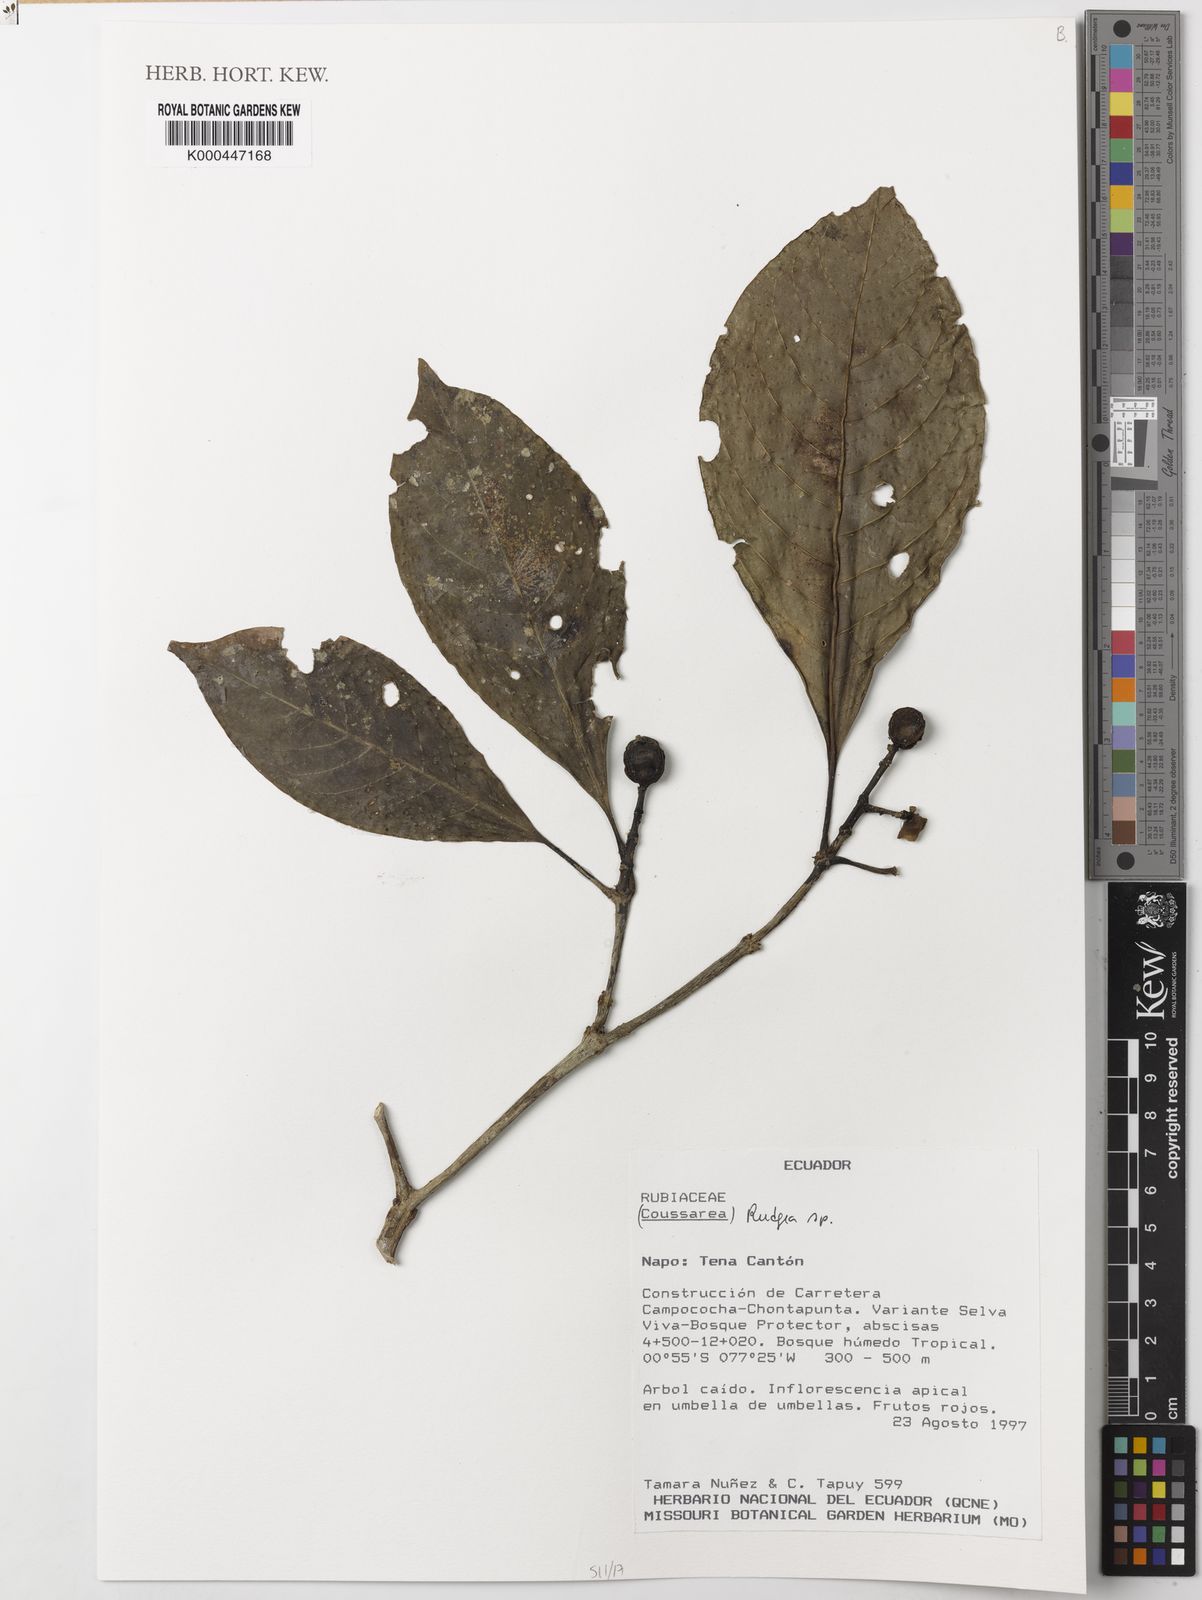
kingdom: Plantae
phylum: Tracheophyta
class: Magnoliopsida
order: Gentianales
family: Rubiaceae
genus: Rudgea
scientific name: Rudgea
